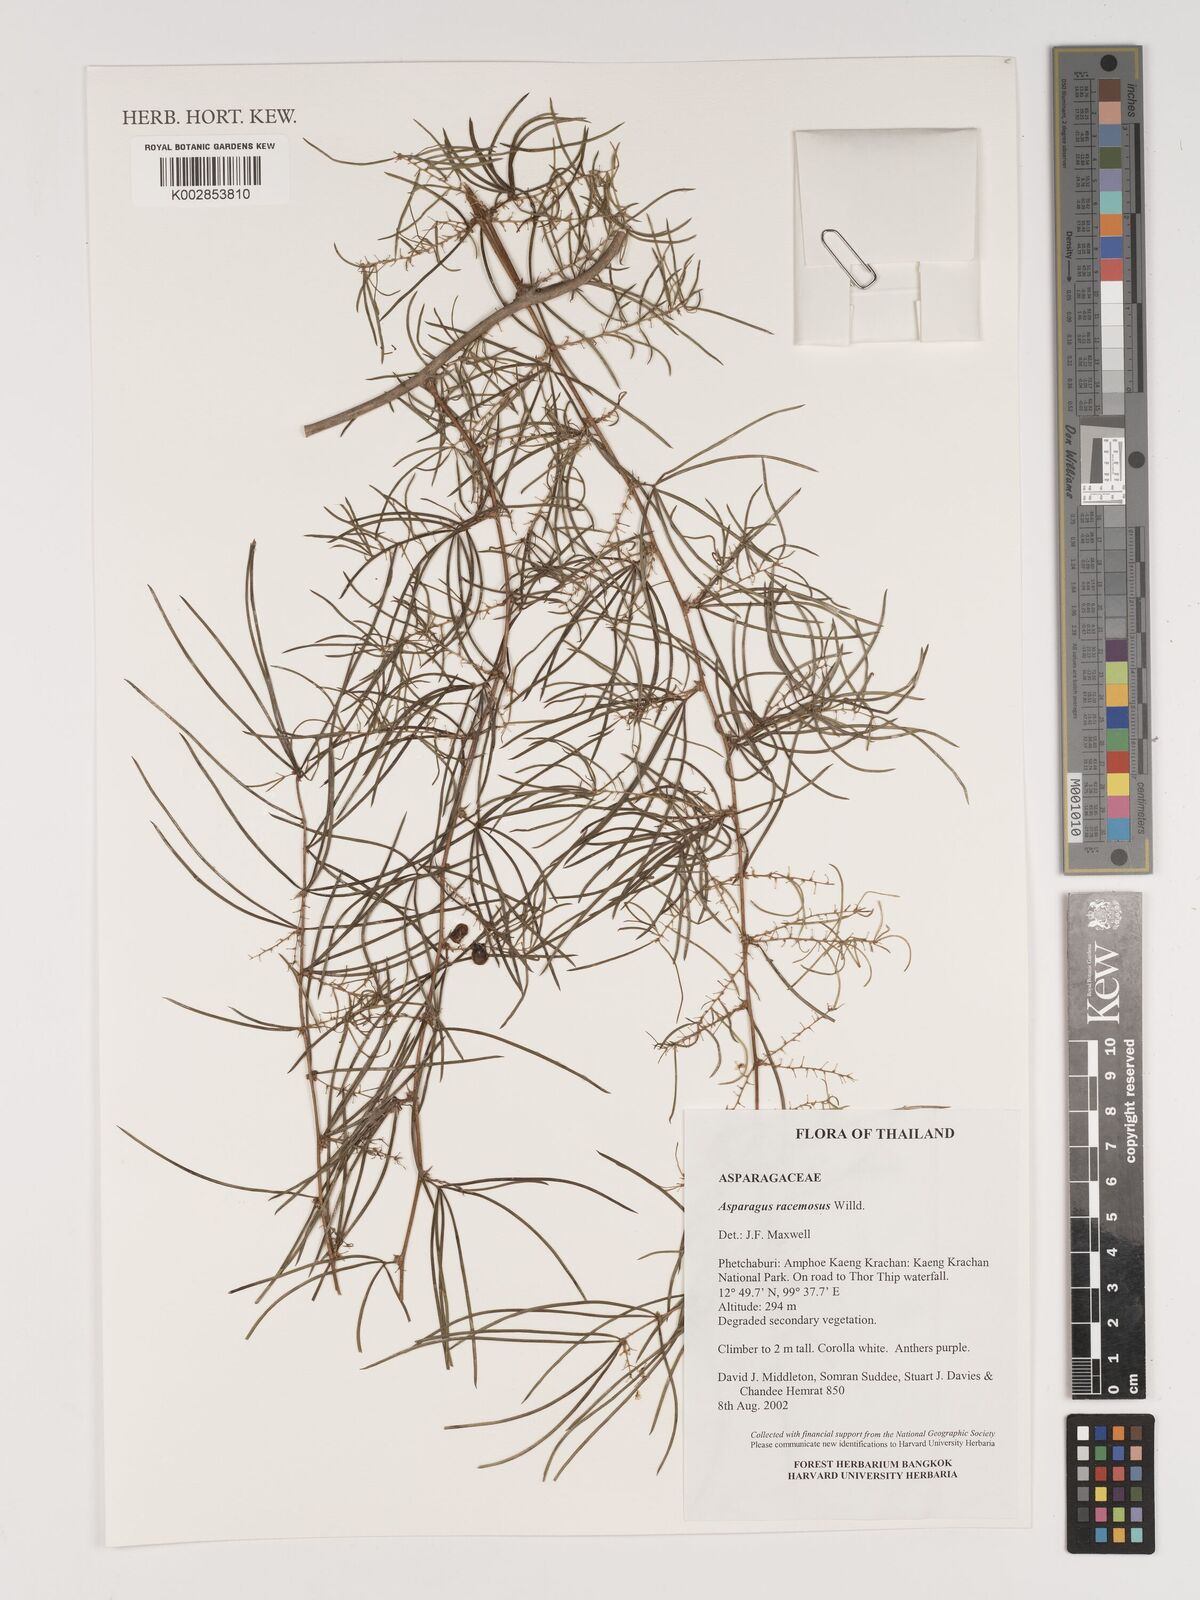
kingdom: Plantae
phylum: Tracheophyta
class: Liliopsida
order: Asparagales
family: Asparagaceae
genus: Asparagus
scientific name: Asparagus racemosus
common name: Asparagus-fern
